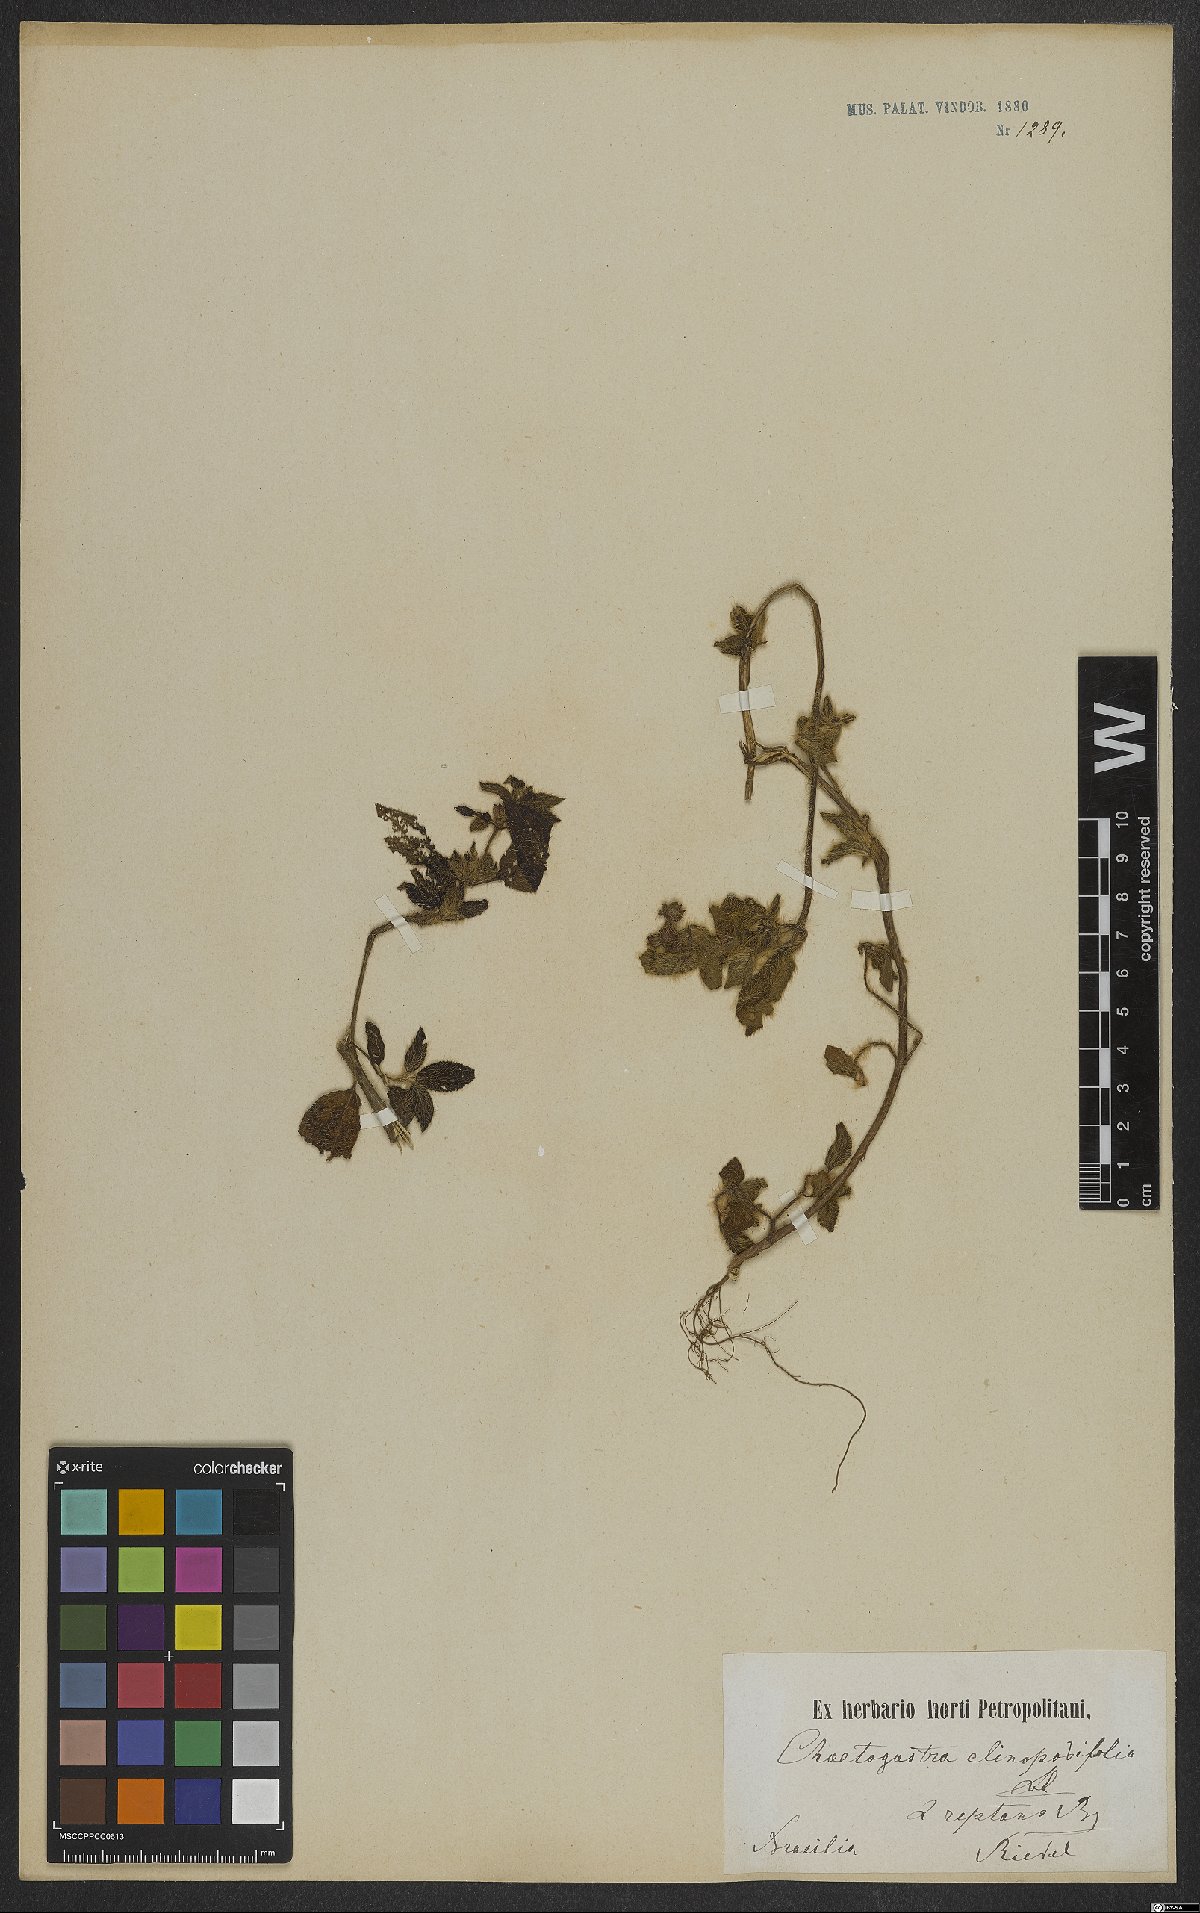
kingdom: Plantae
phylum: Tracheophyta
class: Magnoliopsida
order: Myrtales
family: Melastomataceae
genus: Chaetogastra
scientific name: Chaetogastra clinopodifolia
